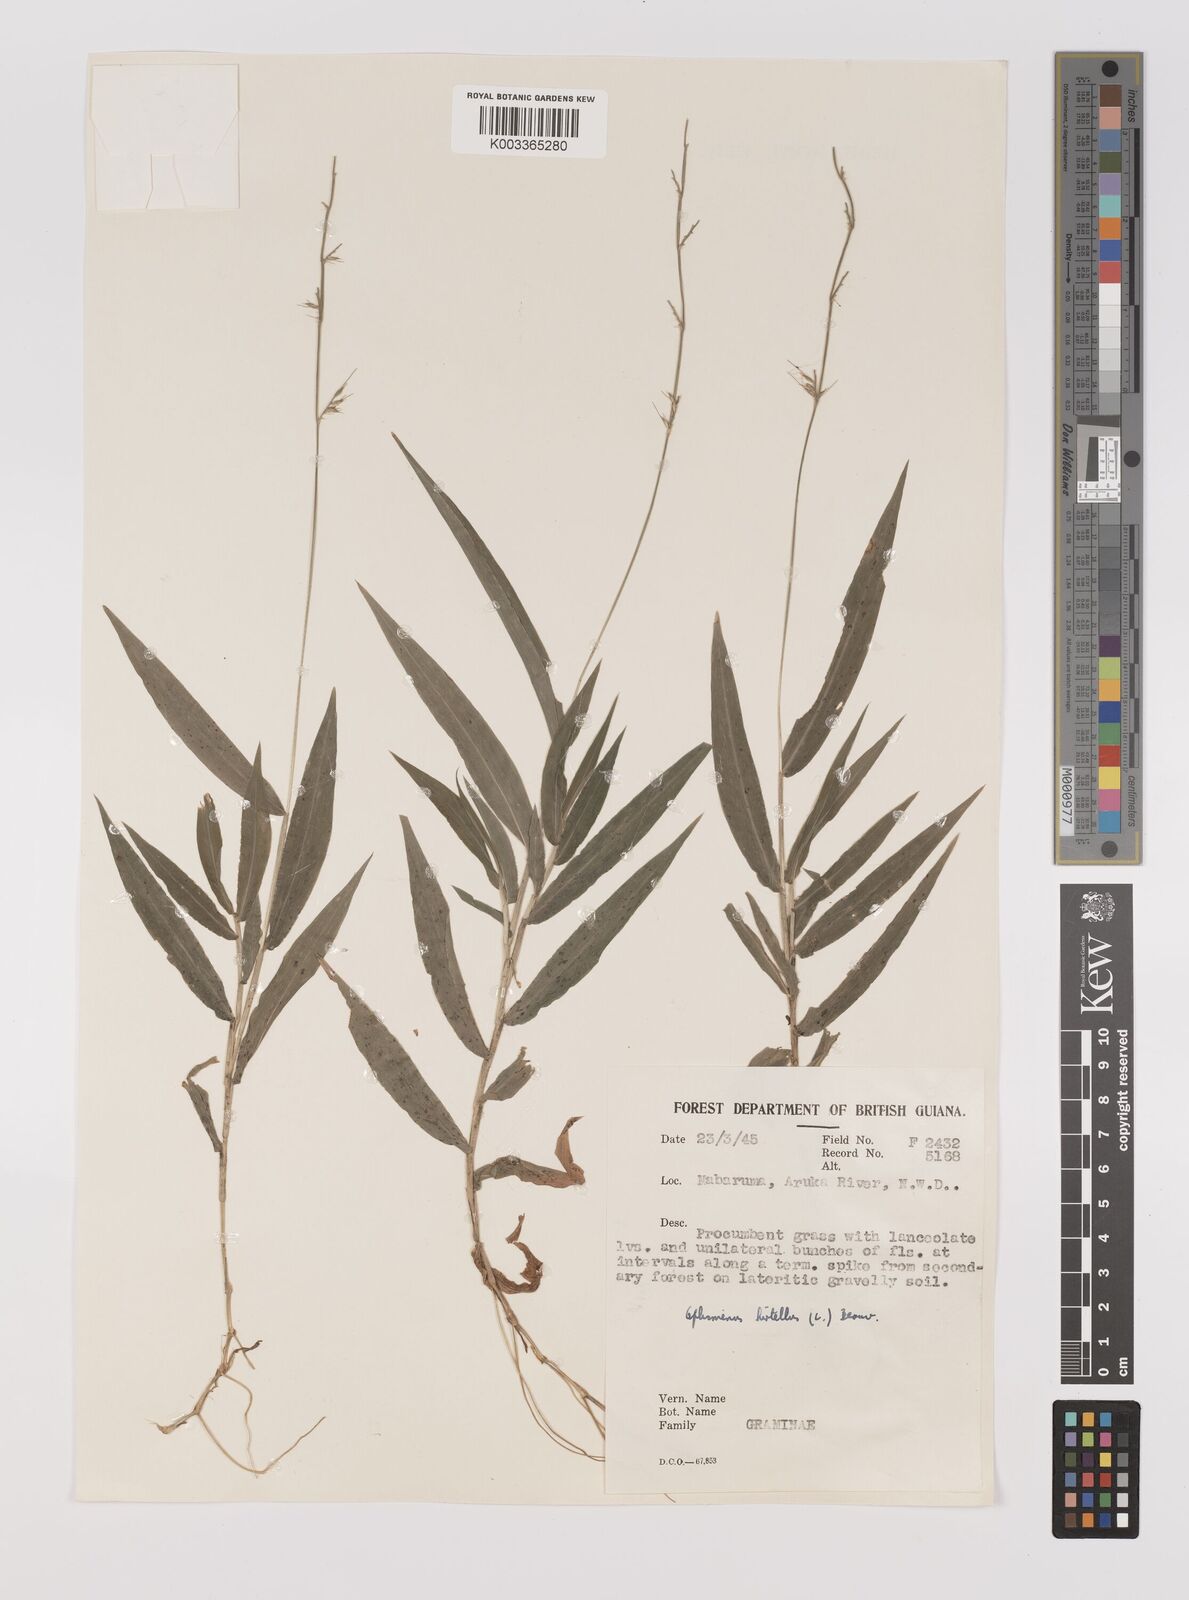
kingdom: Plantae
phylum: Tracheophyta
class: Liliopsida
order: Poales
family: Poaceae
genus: Oplismenus
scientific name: Oplismenus hirtellus
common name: Basketgrass
